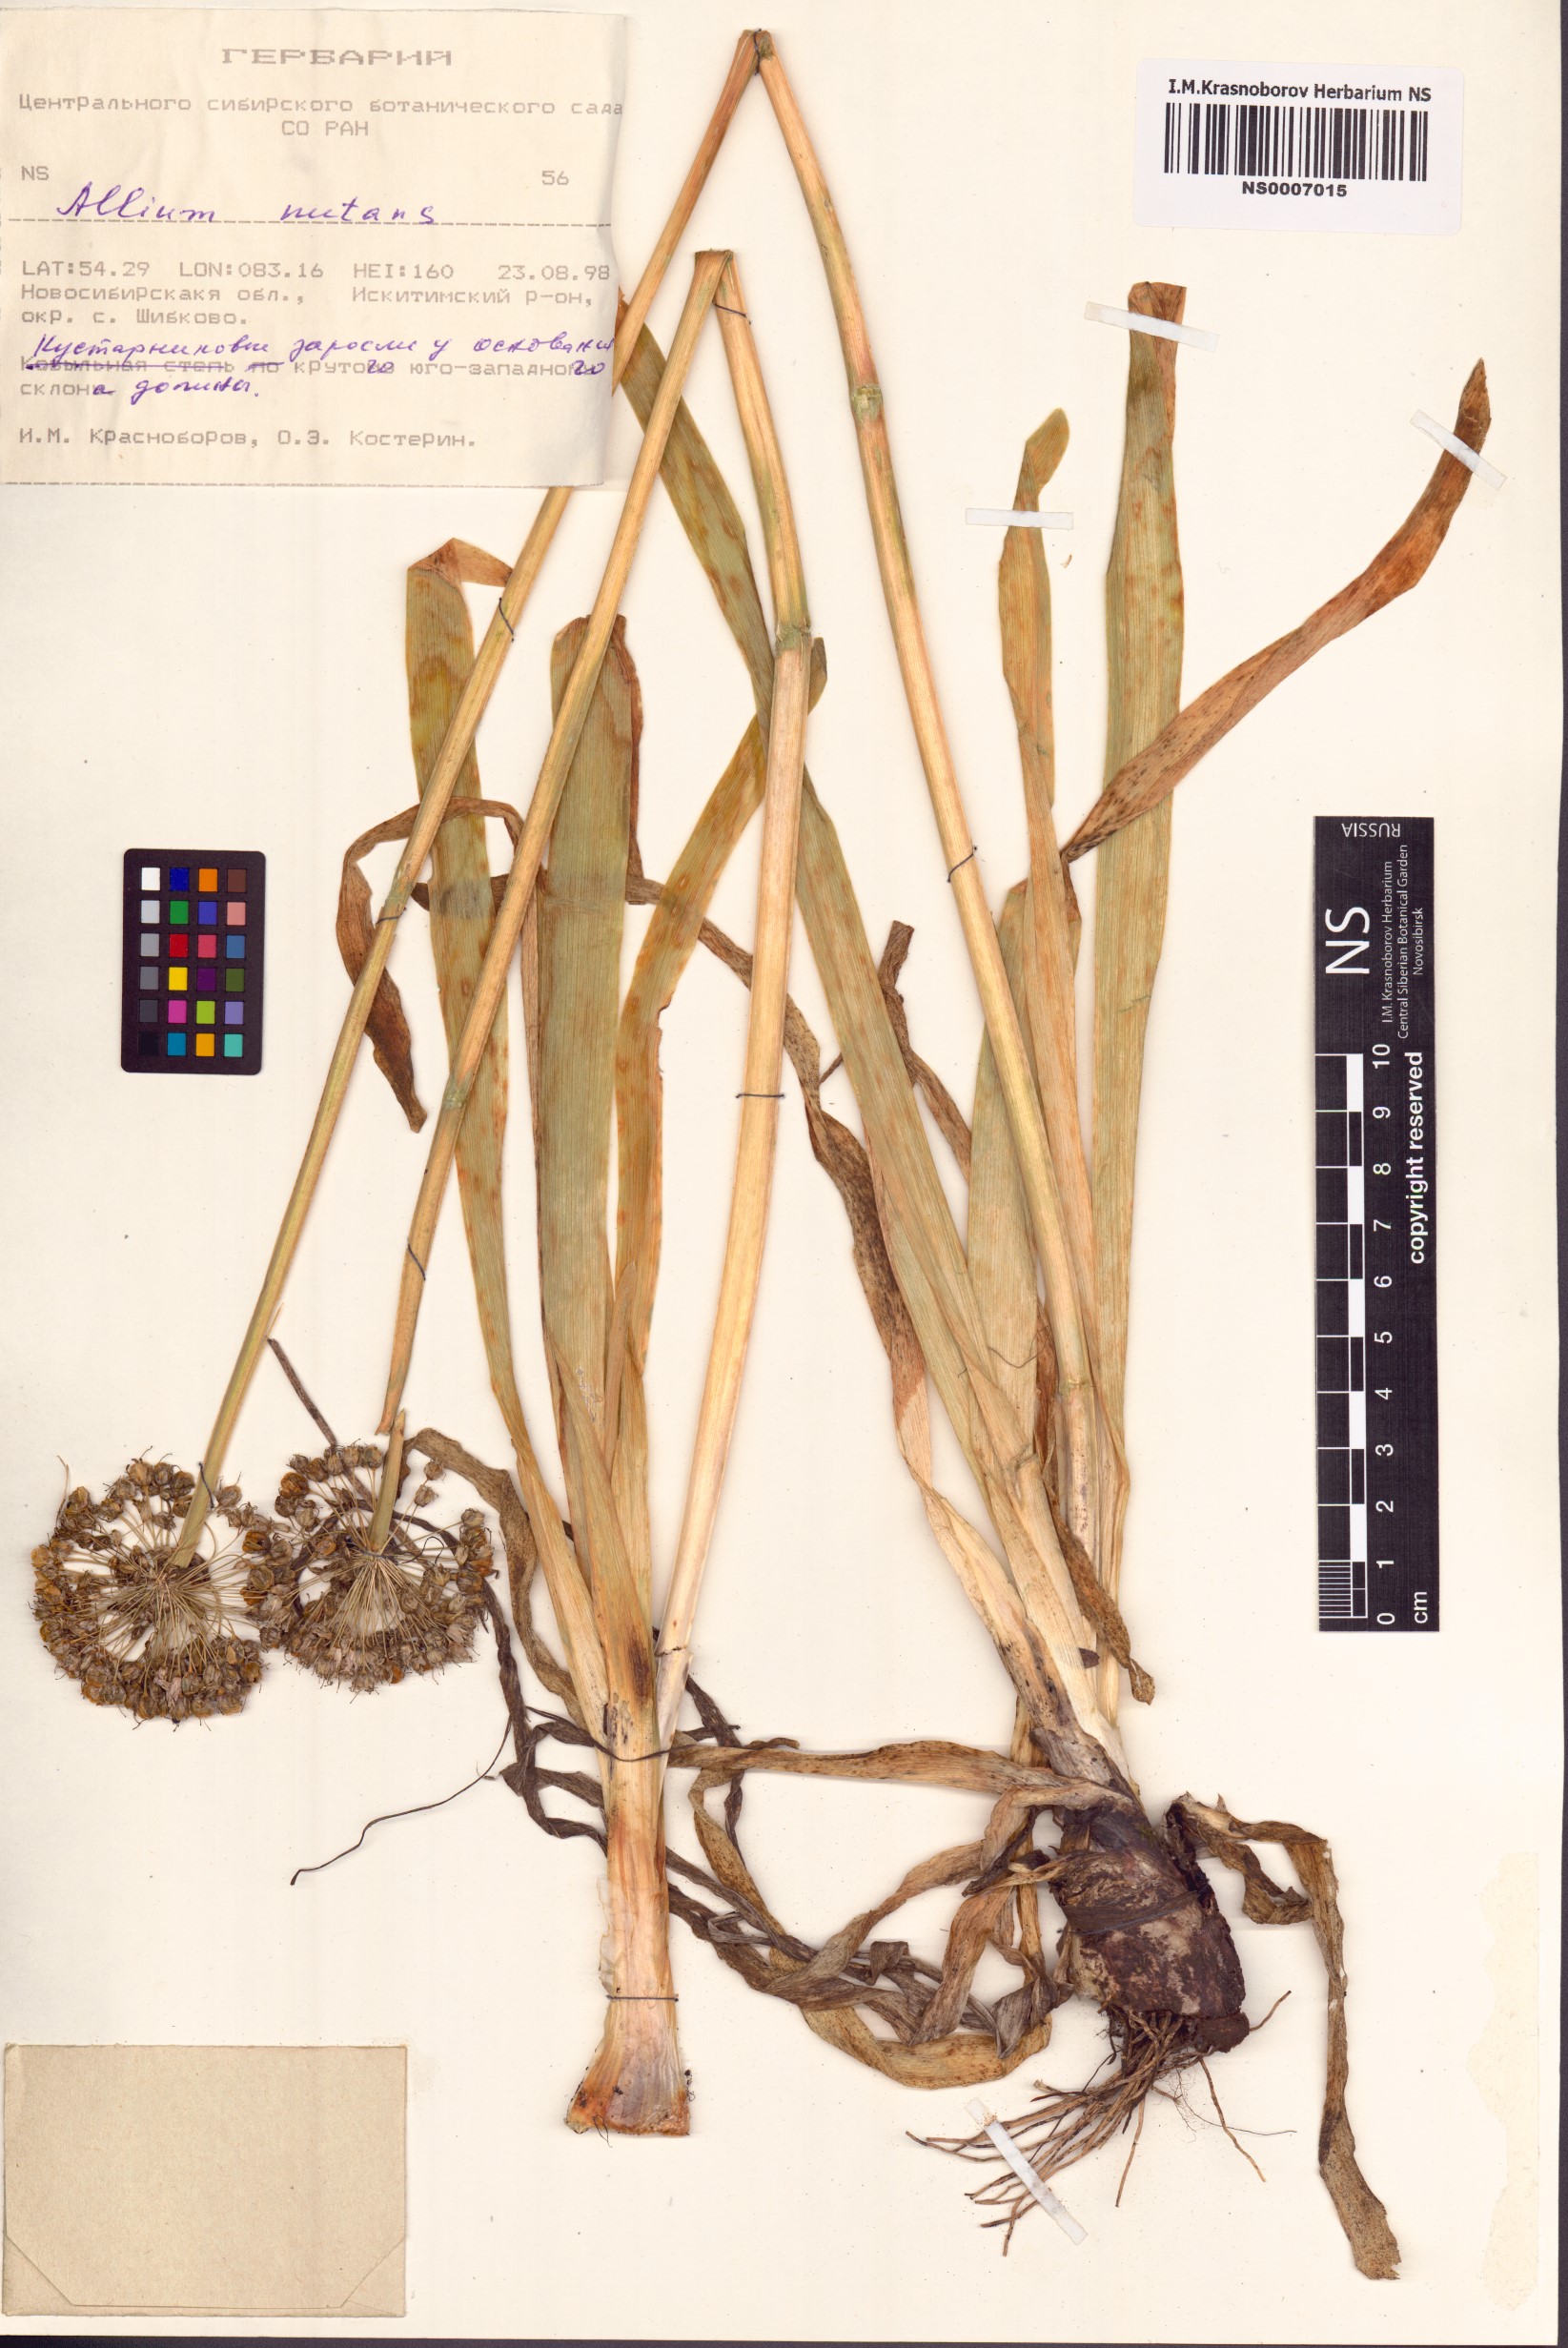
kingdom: Plantae
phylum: Tracheophyta
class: Liliopsida
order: Asparagales
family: Amaryllidaceae
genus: Allium
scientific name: Allium nutans
